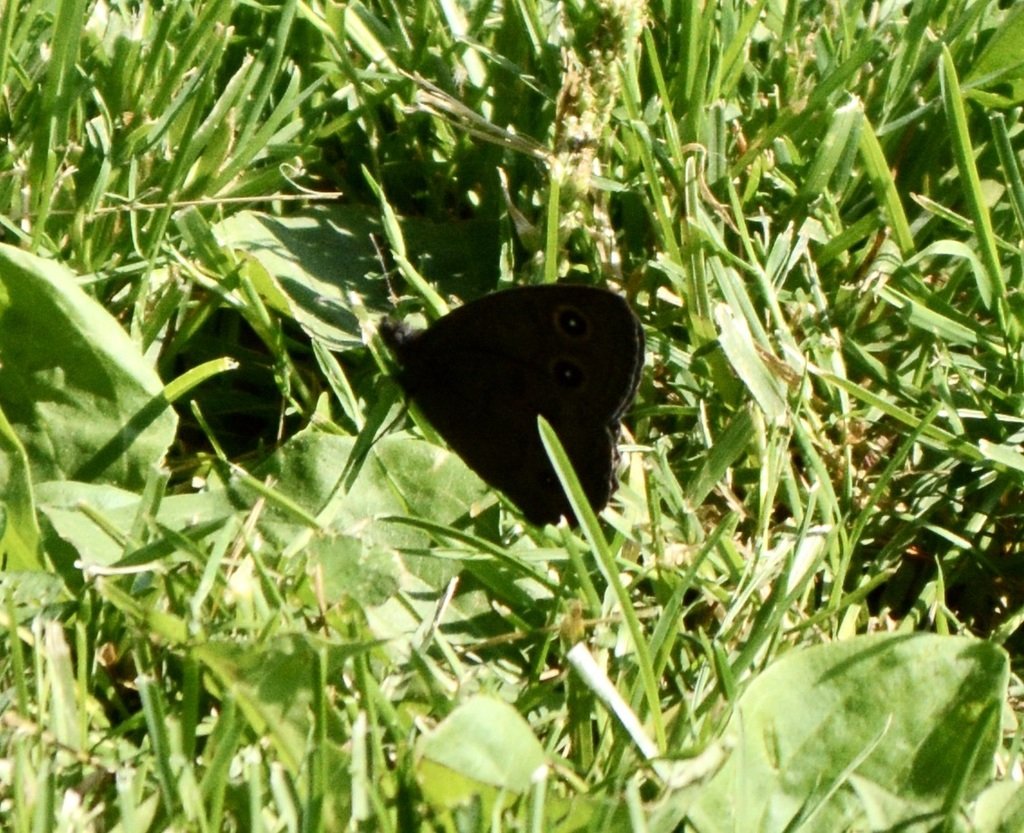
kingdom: Animalia
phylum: Arthropoda
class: Insecta
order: Lepidoptera
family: Nymphalidae
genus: Cercyonis
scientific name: Cercyonis pegala
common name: Common Wood-Nymph
